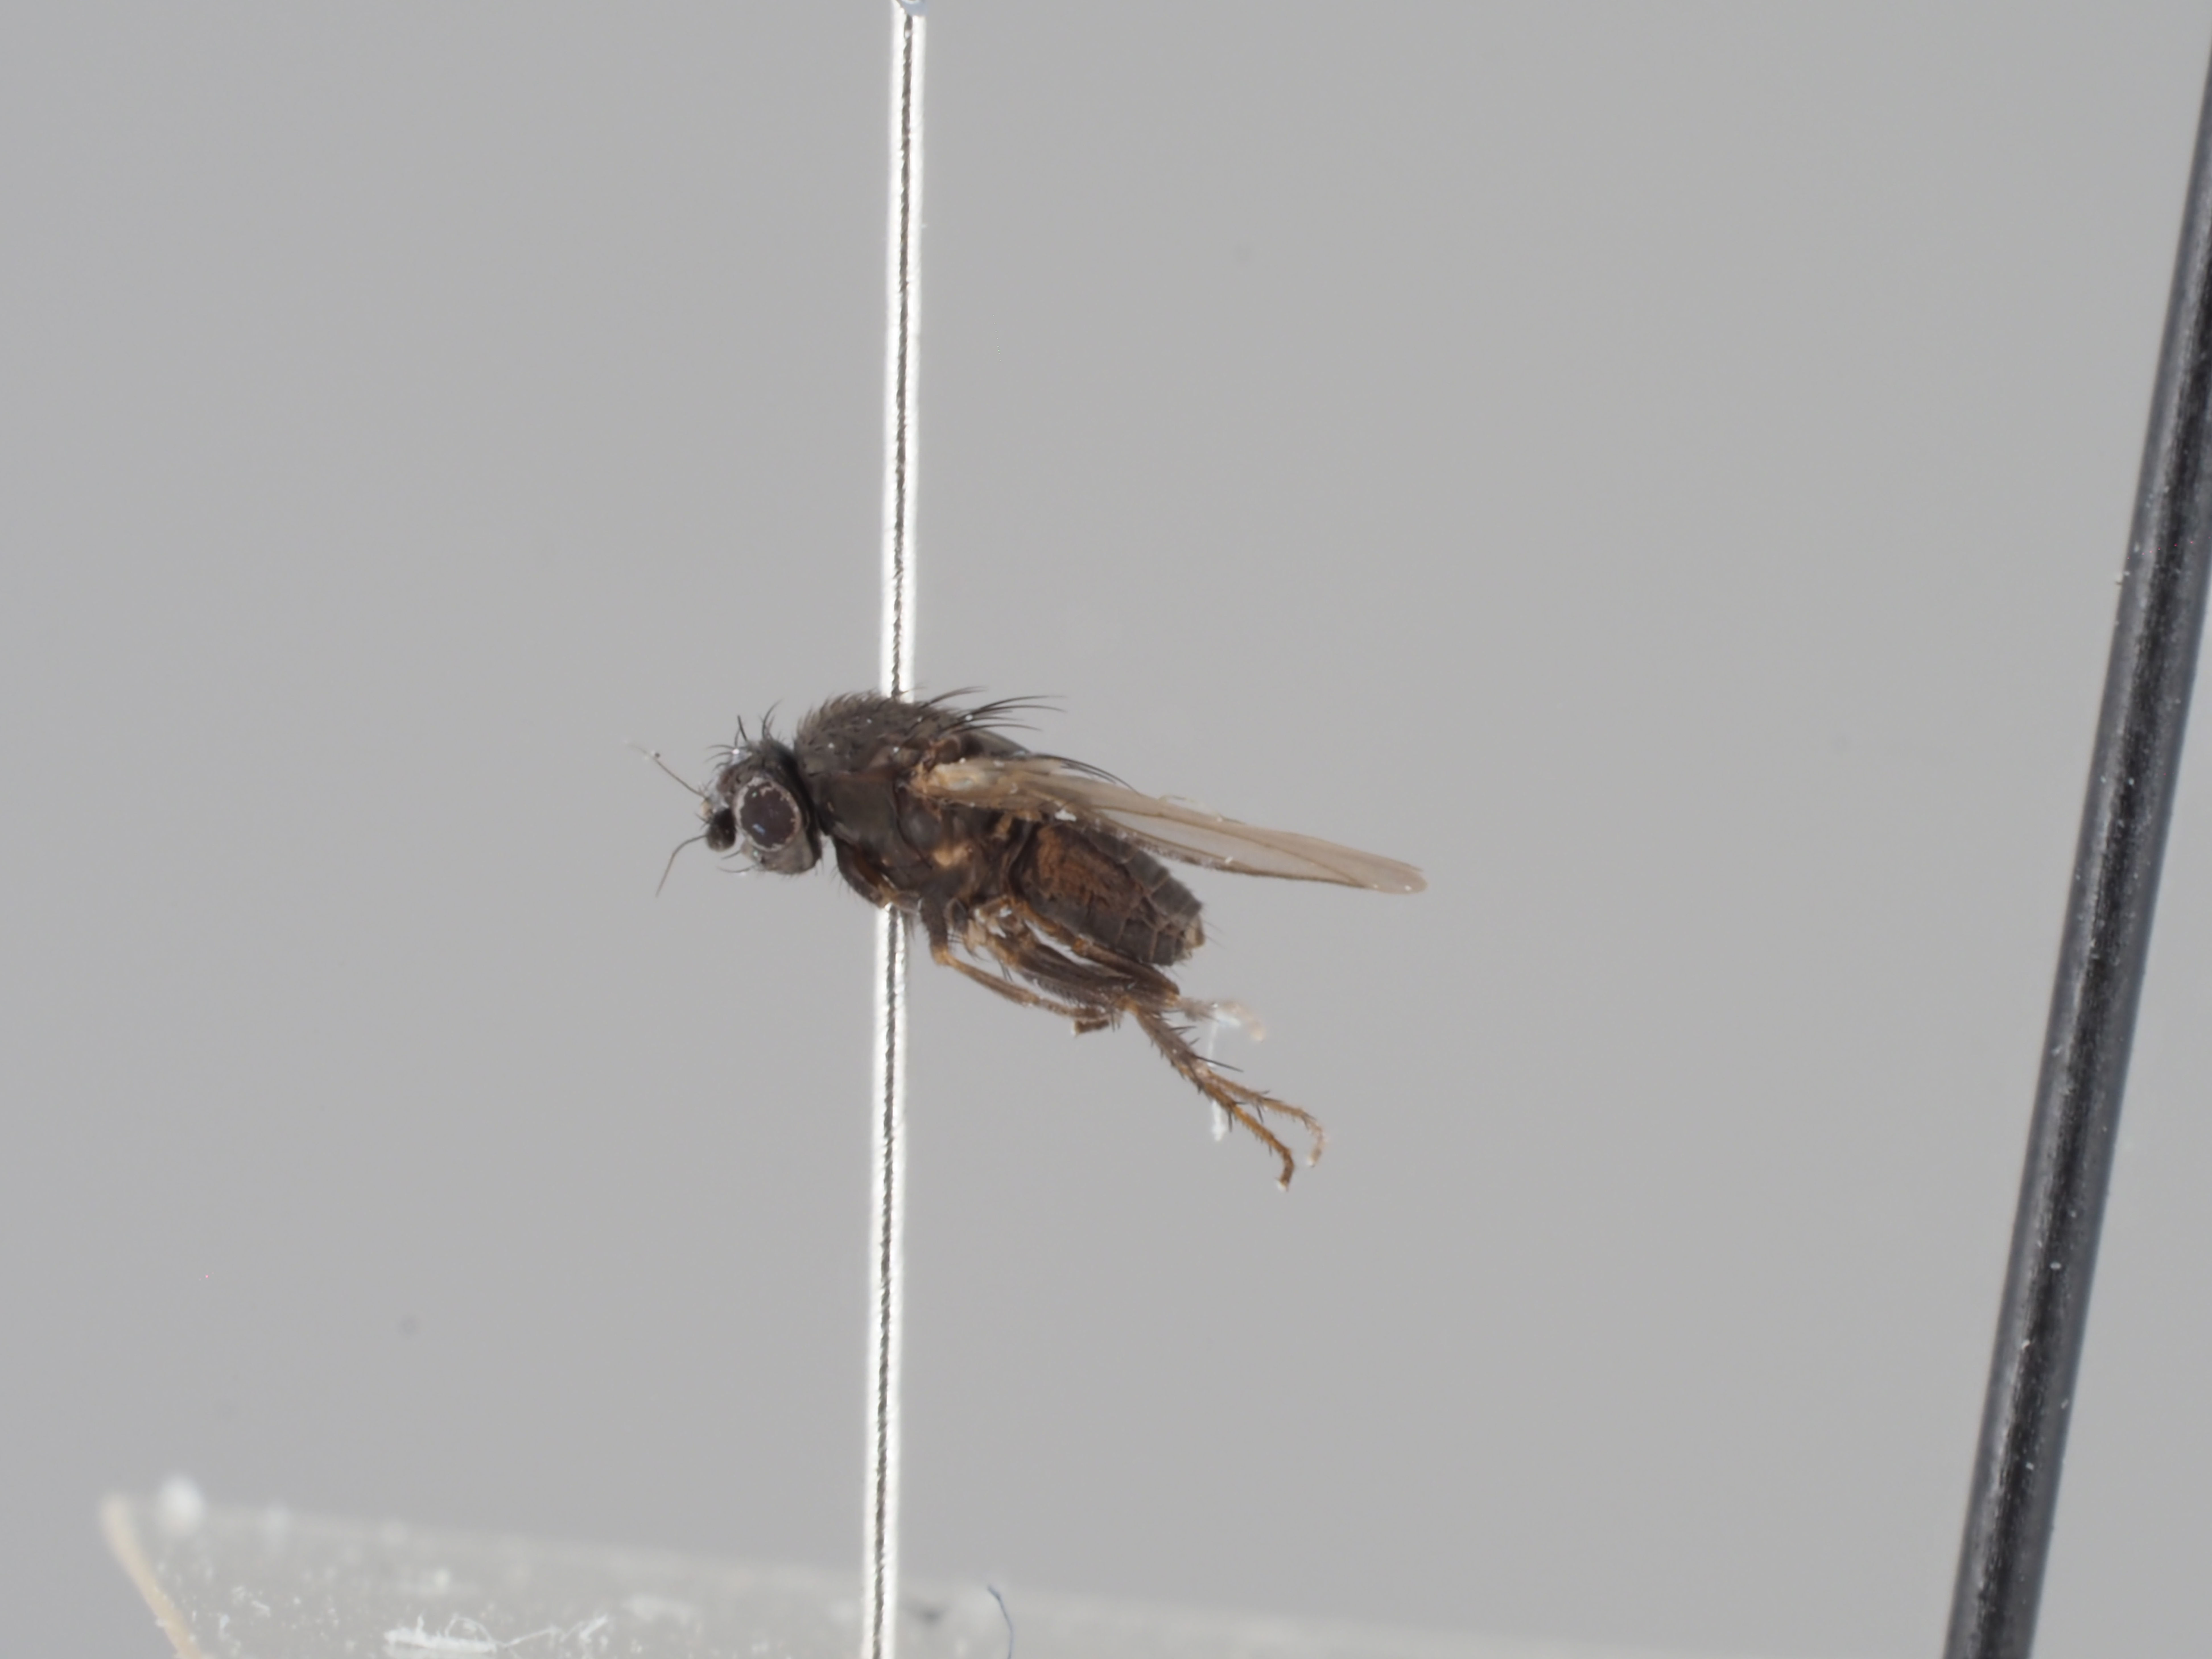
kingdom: Animalia
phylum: Arthropoda
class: Insecta
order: Diptera
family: Sphaeroceridae
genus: Leptocera
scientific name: Leptocera nigra
